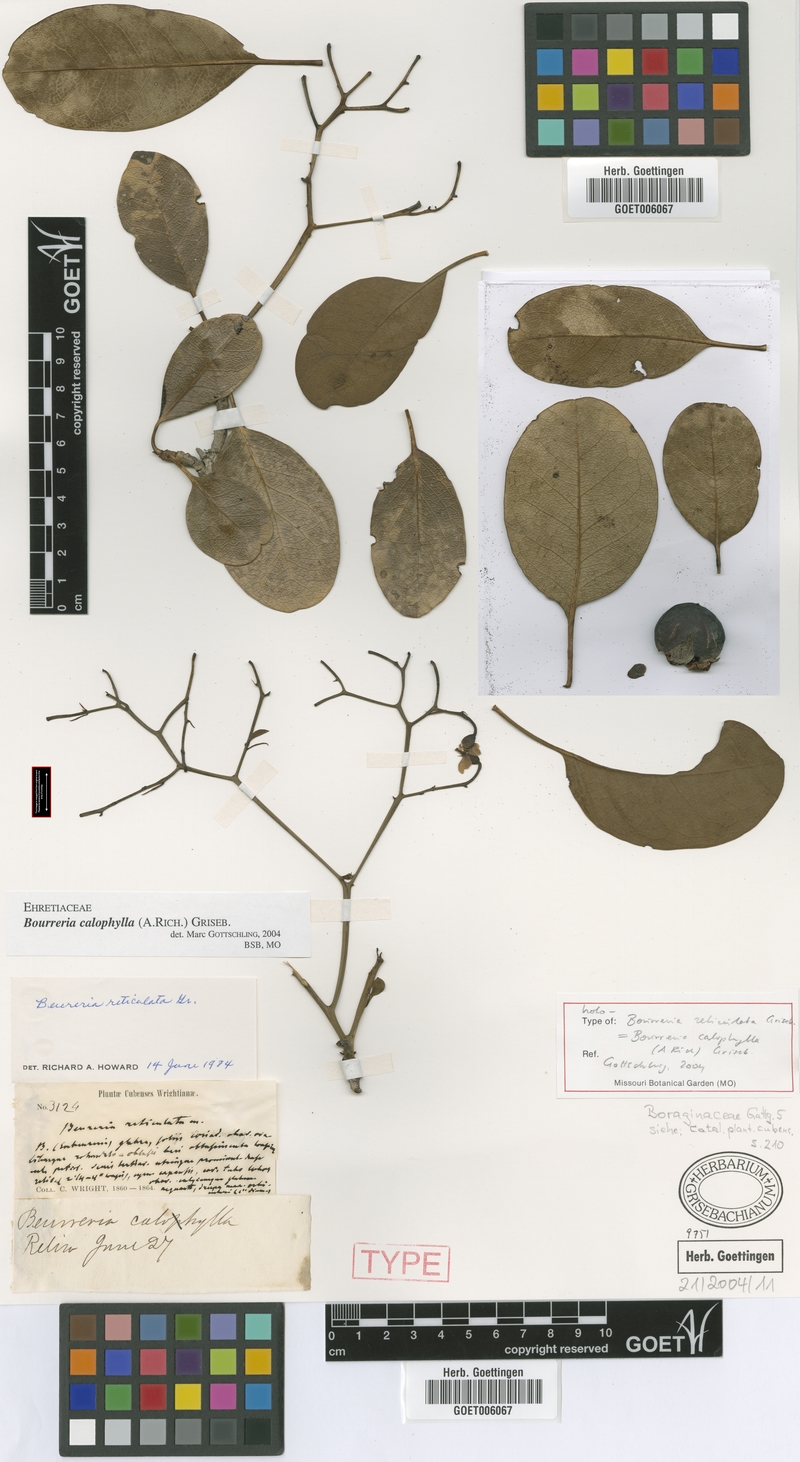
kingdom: Plantae
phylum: Tracheophyta
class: Magnoliopsida
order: Boraginales
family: Ehretiaceae
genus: Bourreria
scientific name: Bourreria calophylla
